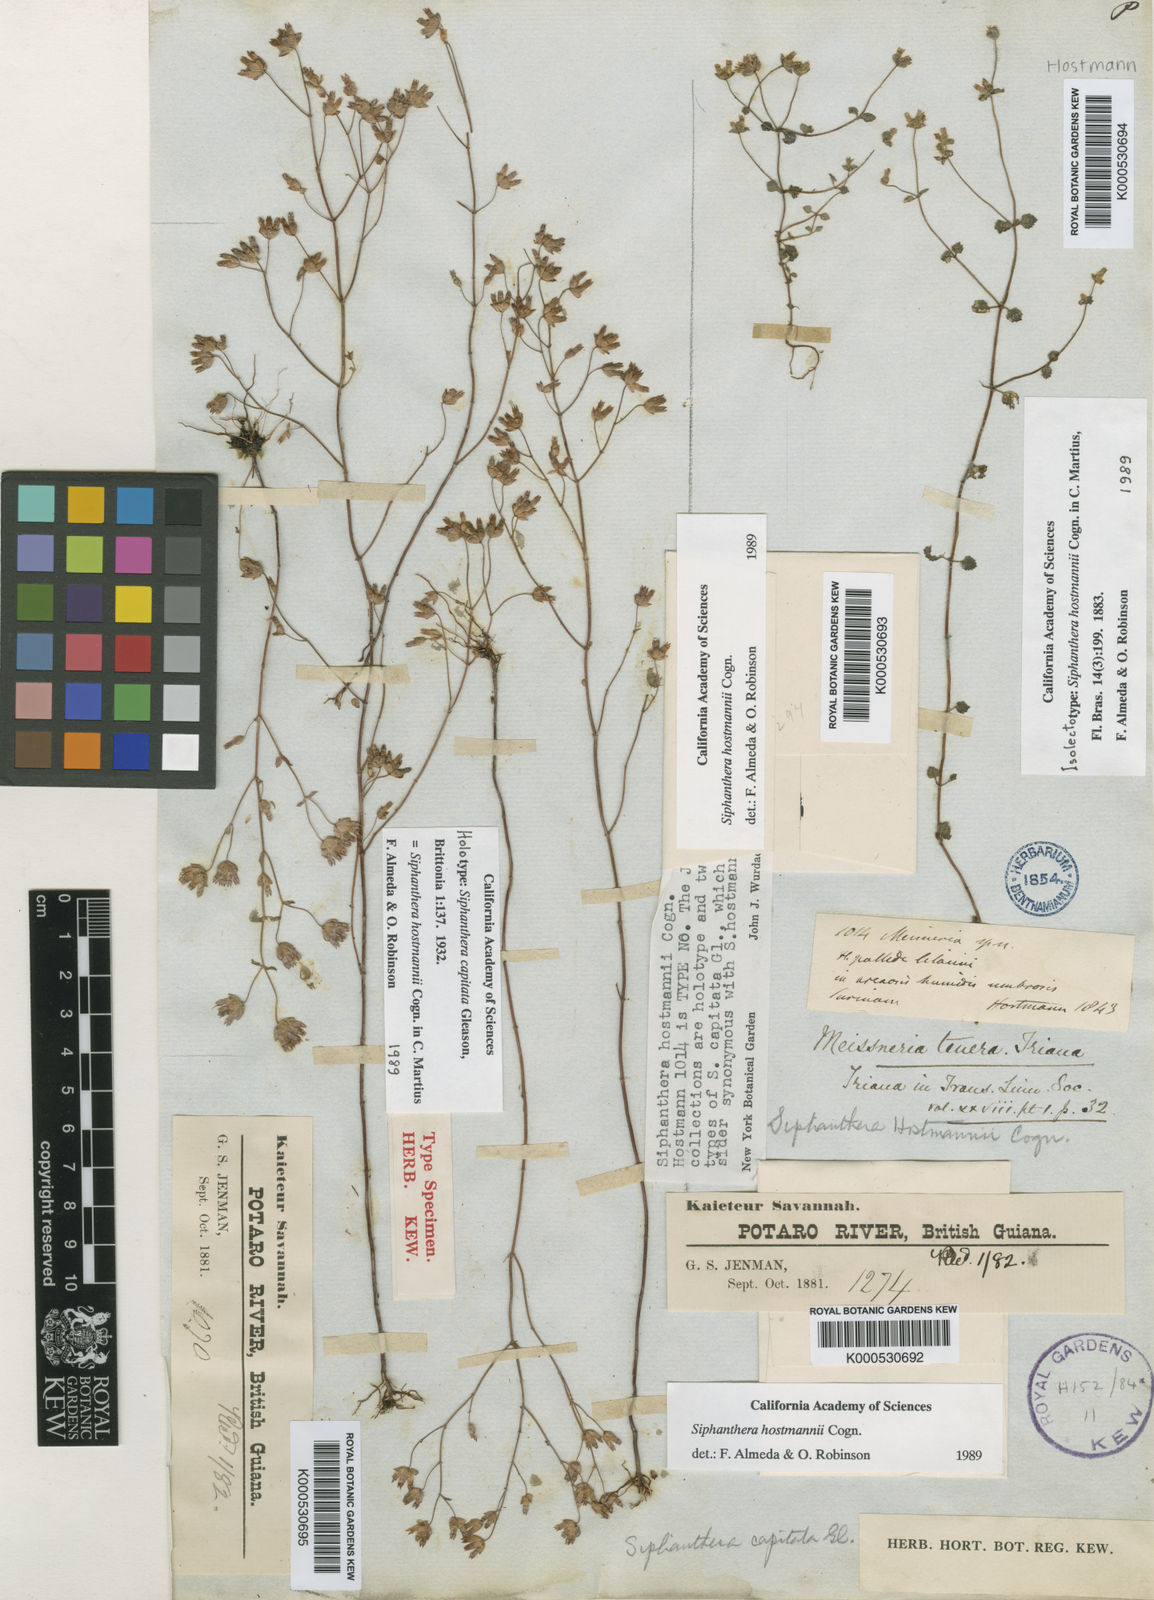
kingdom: Plantae
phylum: Tracheophyta
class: Magnoliopsida
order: Myrtales
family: Melastomataceae
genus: Siphanthera
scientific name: Siphanthera hostmannii
